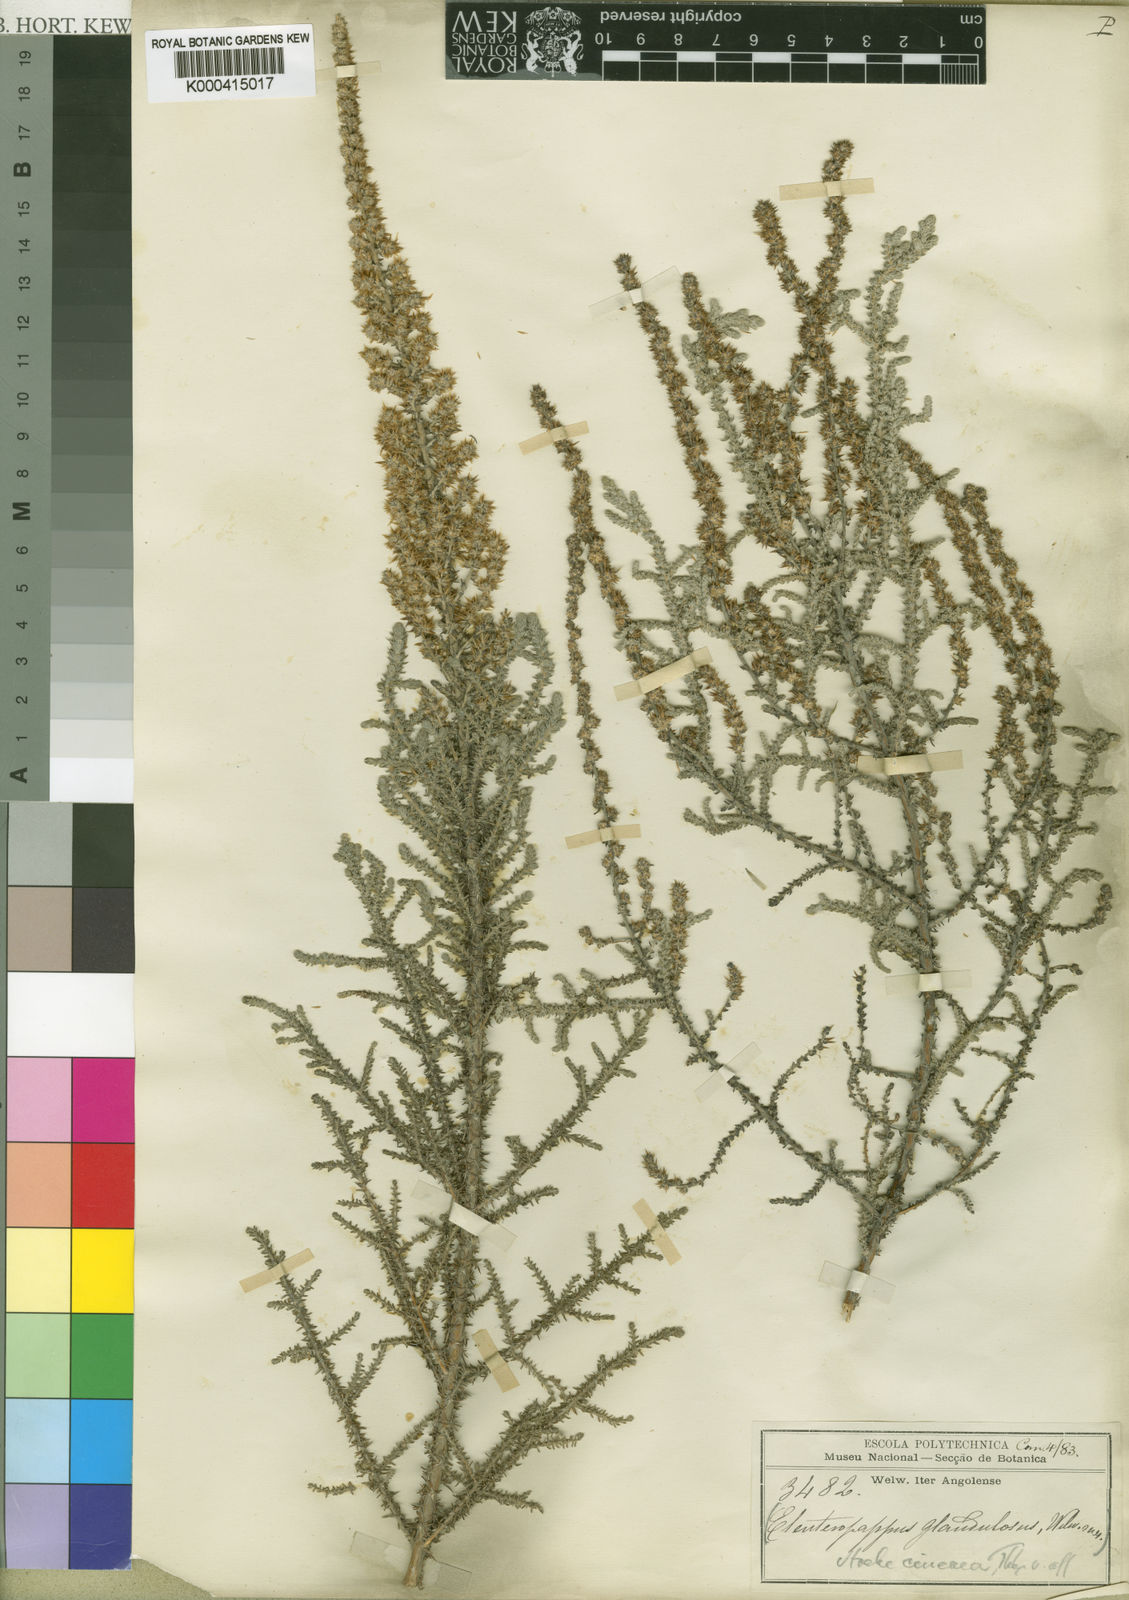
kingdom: Plantae
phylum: Tracheophyta
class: Magnoliopsida
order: Asterales
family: Asteraceae
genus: Seriphium
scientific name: Seriphium plumosum
